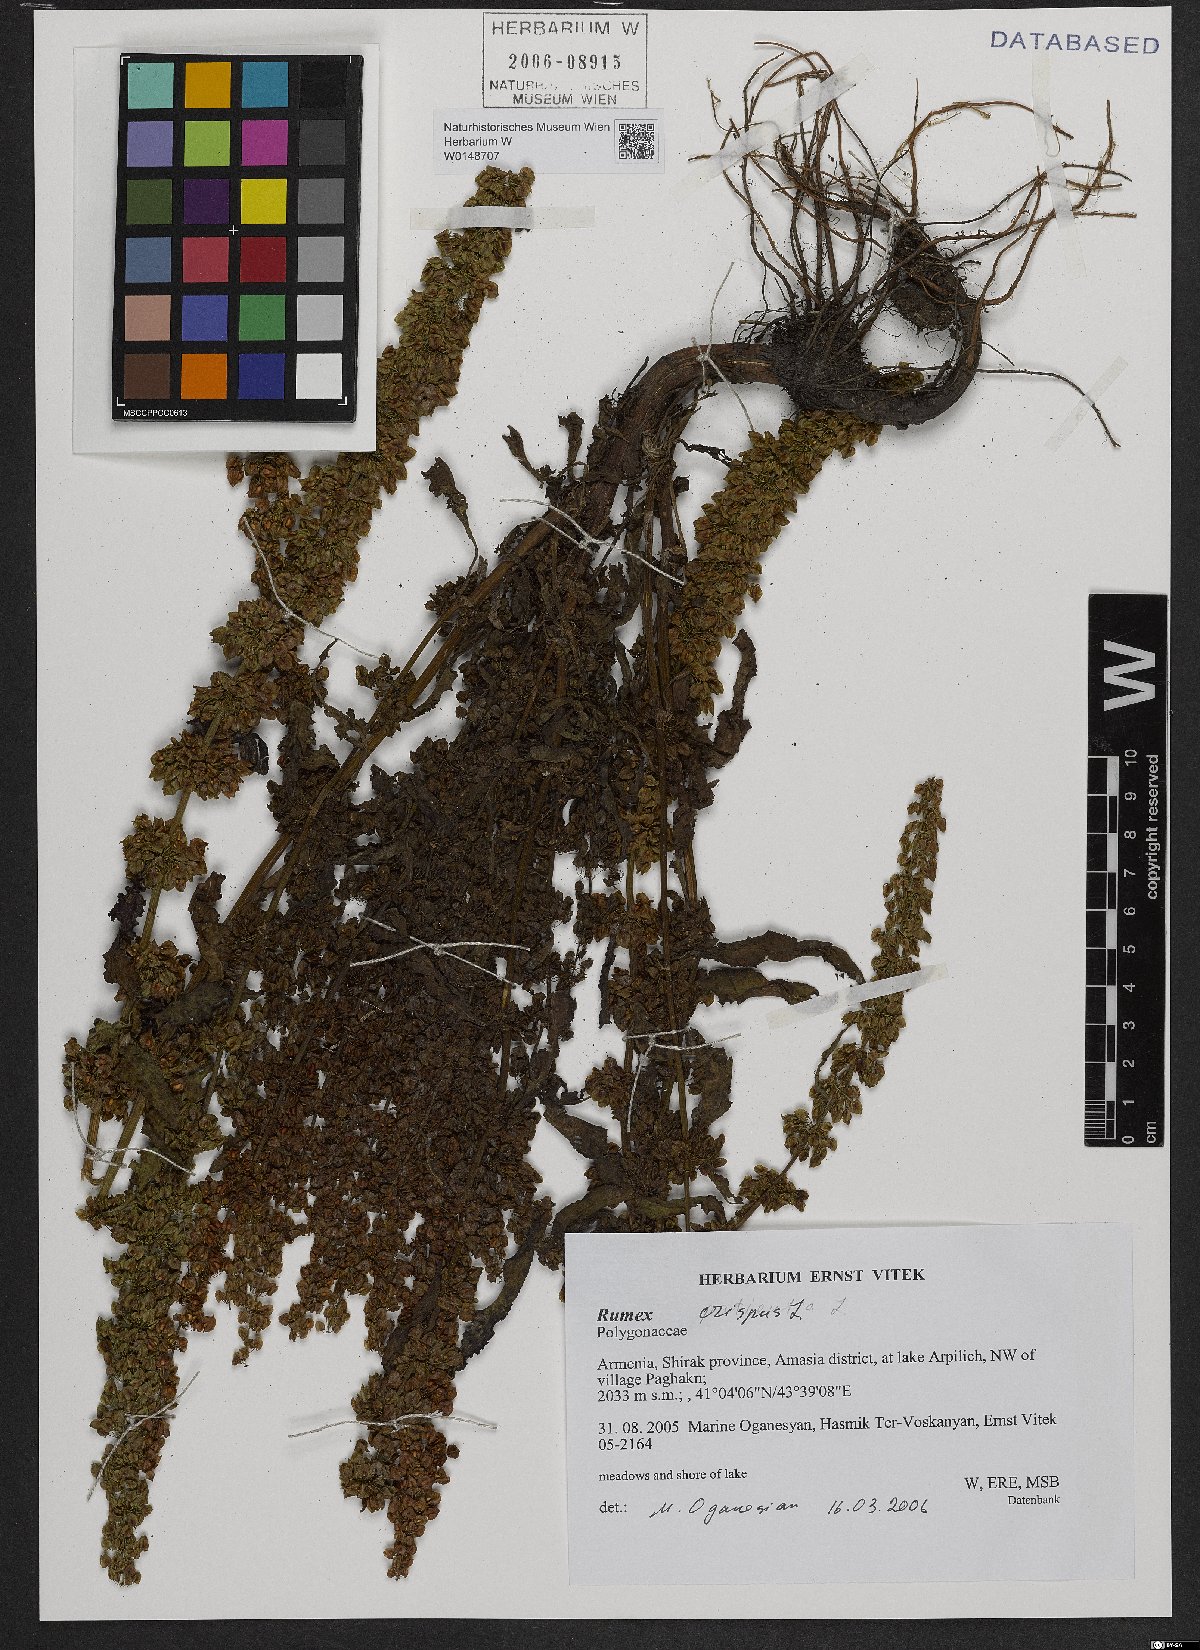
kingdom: Plantae
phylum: Tracheophyta
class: Magnoliopsida
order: Caryophyllales
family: Polygonaceae
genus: Rumex
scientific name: Rumex crispus
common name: Curled dock
